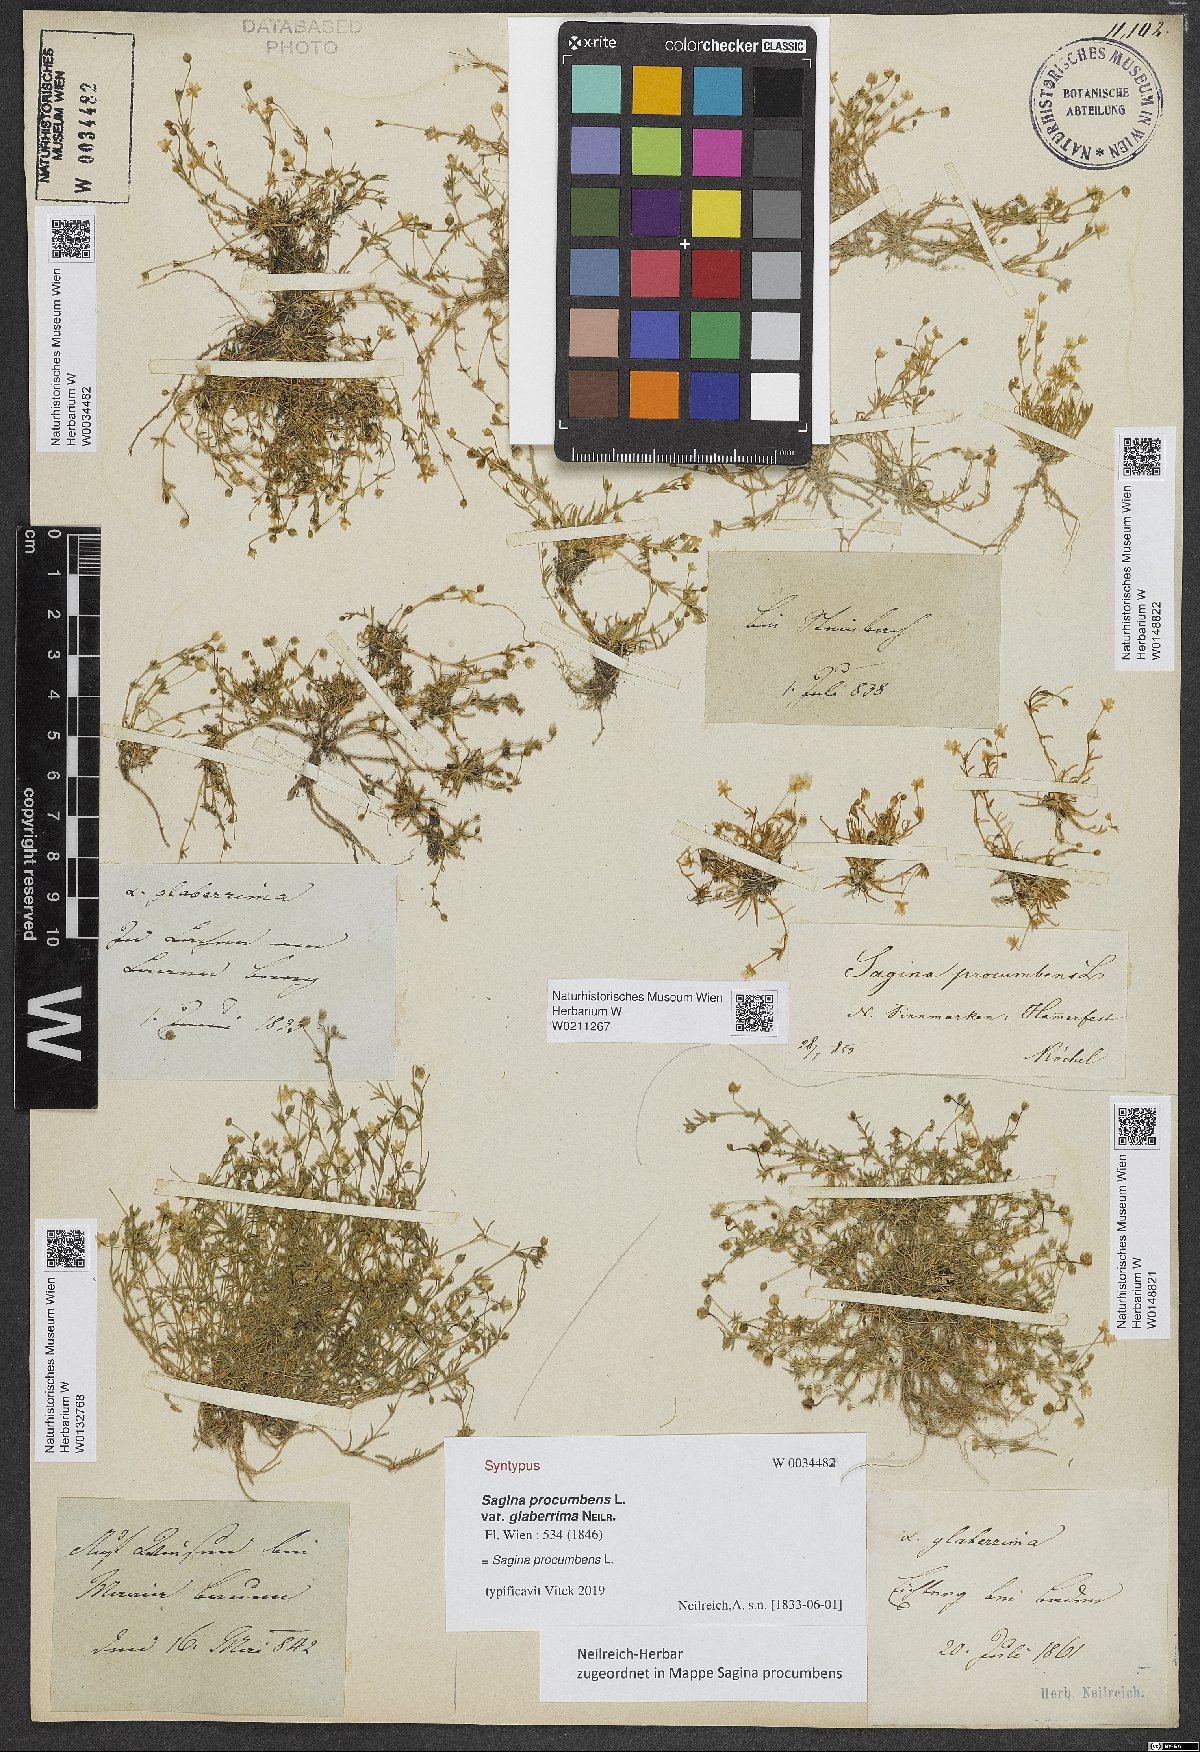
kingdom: Plantae
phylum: Tracheophyta
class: Magnoliopsida
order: Caryophyllales
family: Caryophyllaceae
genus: Sagina
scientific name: Sagina procumbens
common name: Procumbent pearlwort
